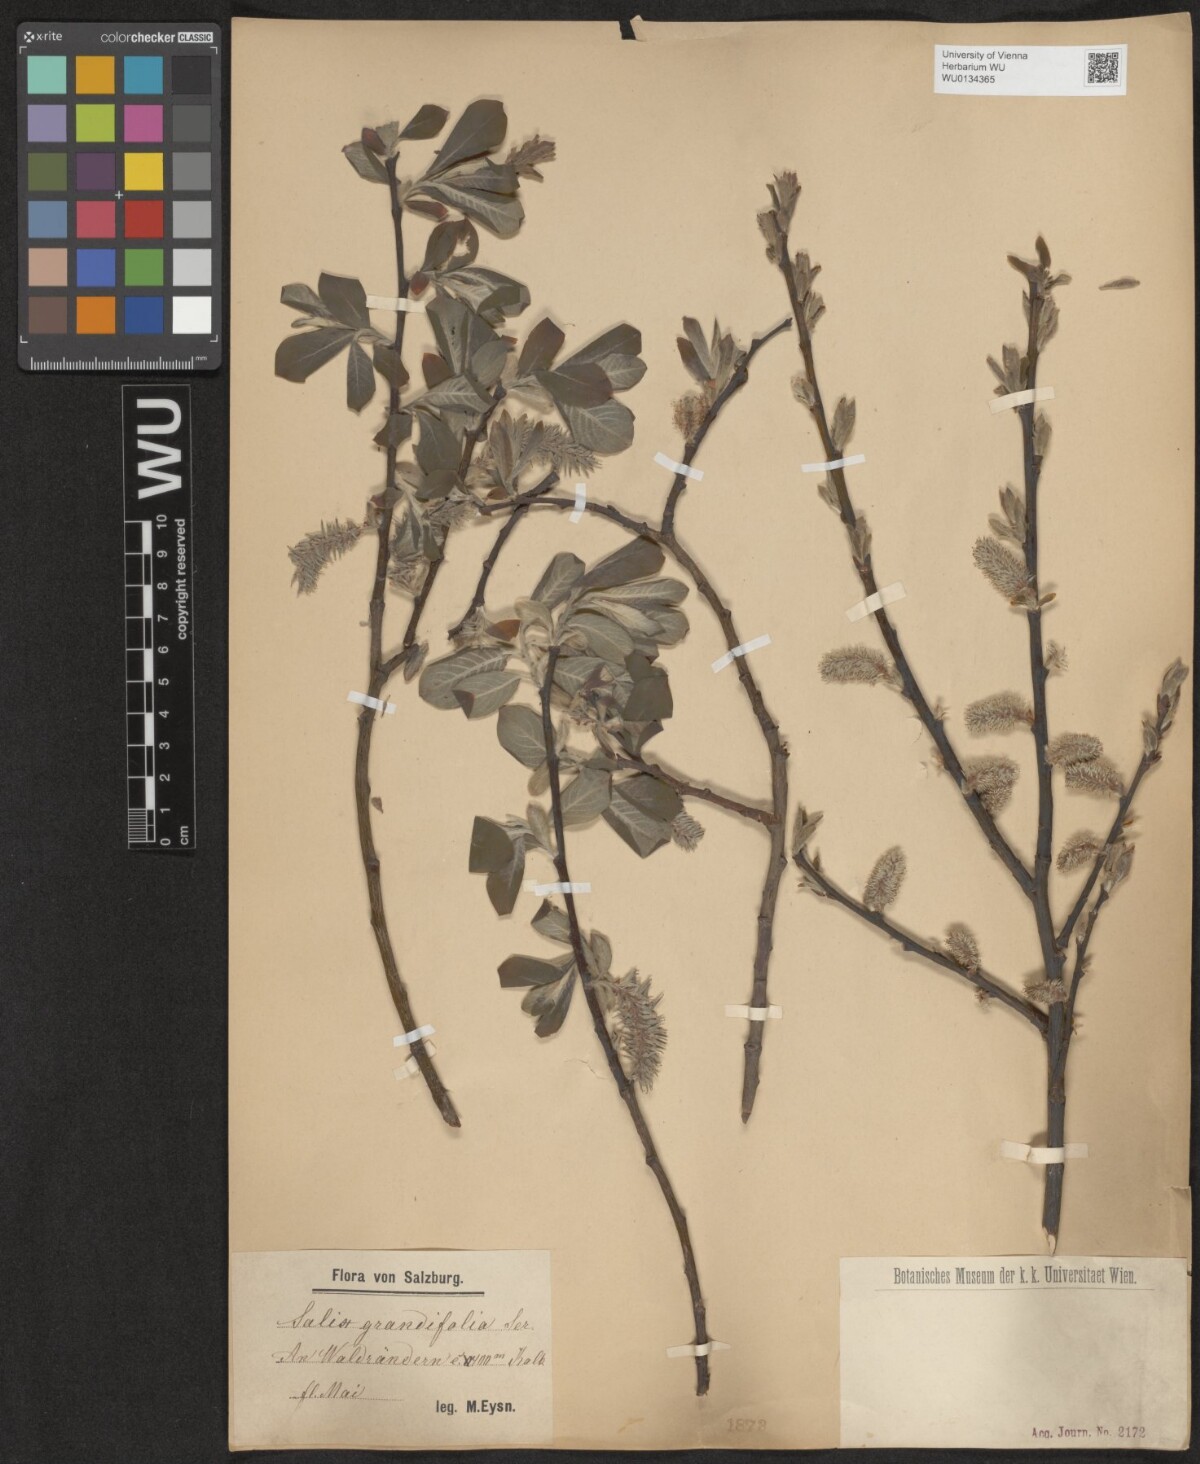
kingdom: Plantae
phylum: Tracheophyta
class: Magnoliopsida
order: Malpighiales
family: Salicaceae
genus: Salix
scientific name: Salix appendiculata
